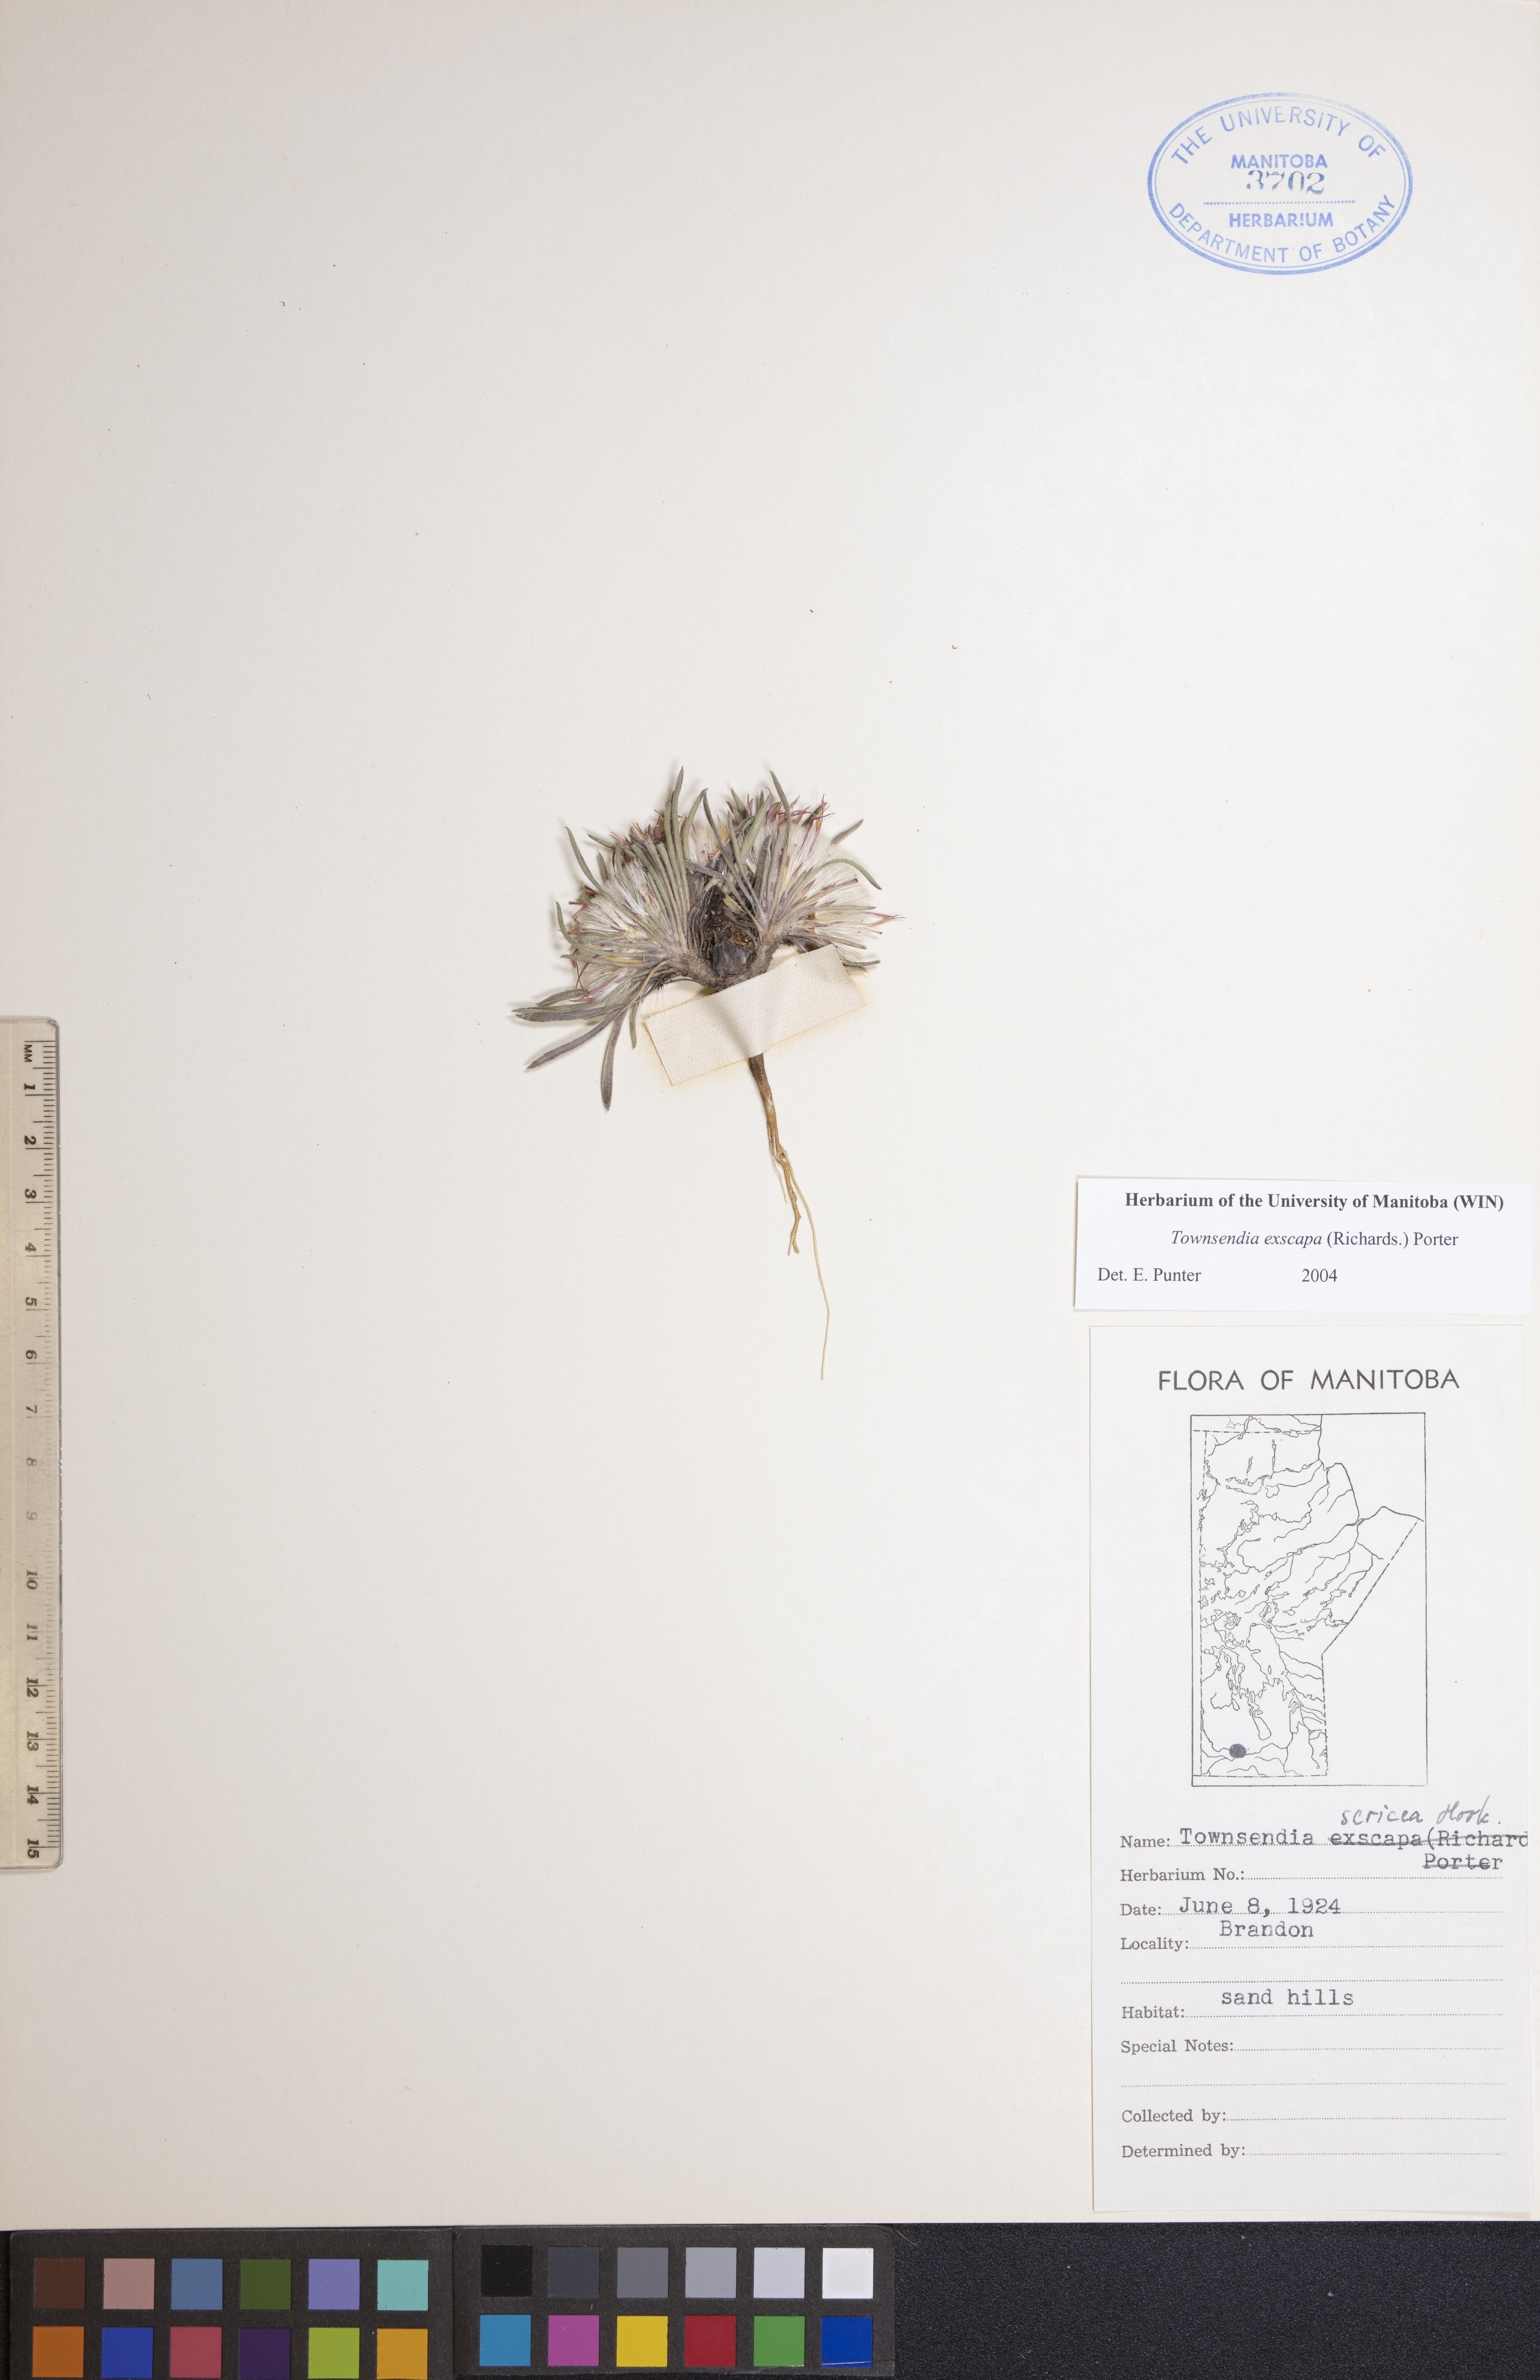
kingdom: Plantae
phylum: Tracheophyta
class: Magnoliopsida
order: Asterales
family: Asteraceae
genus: Townsendia
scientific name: Townsendia exscapa
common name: Dwarf townsendia
